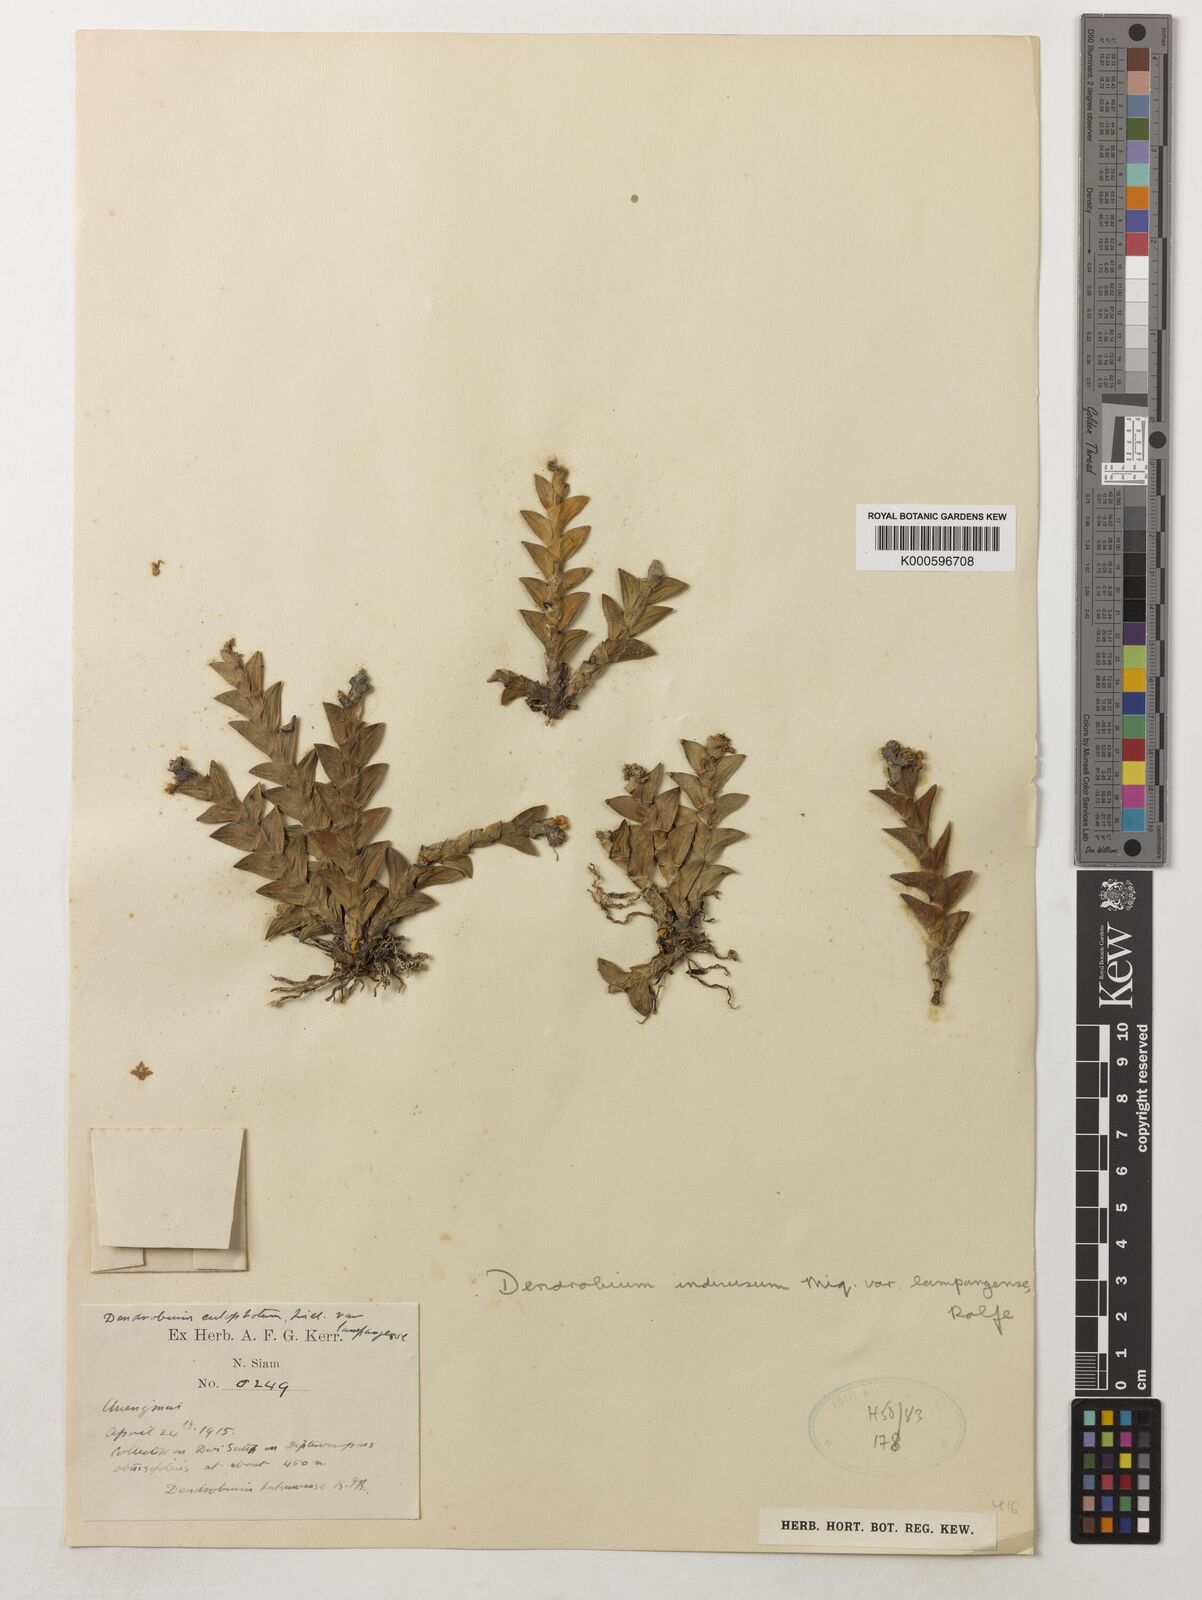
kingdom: Plantae
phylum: Tracheophyta
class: Liliopsida
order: Asparagales
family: Orchidaceae
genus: Dendrobium
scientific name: Dendrobium indivisum
